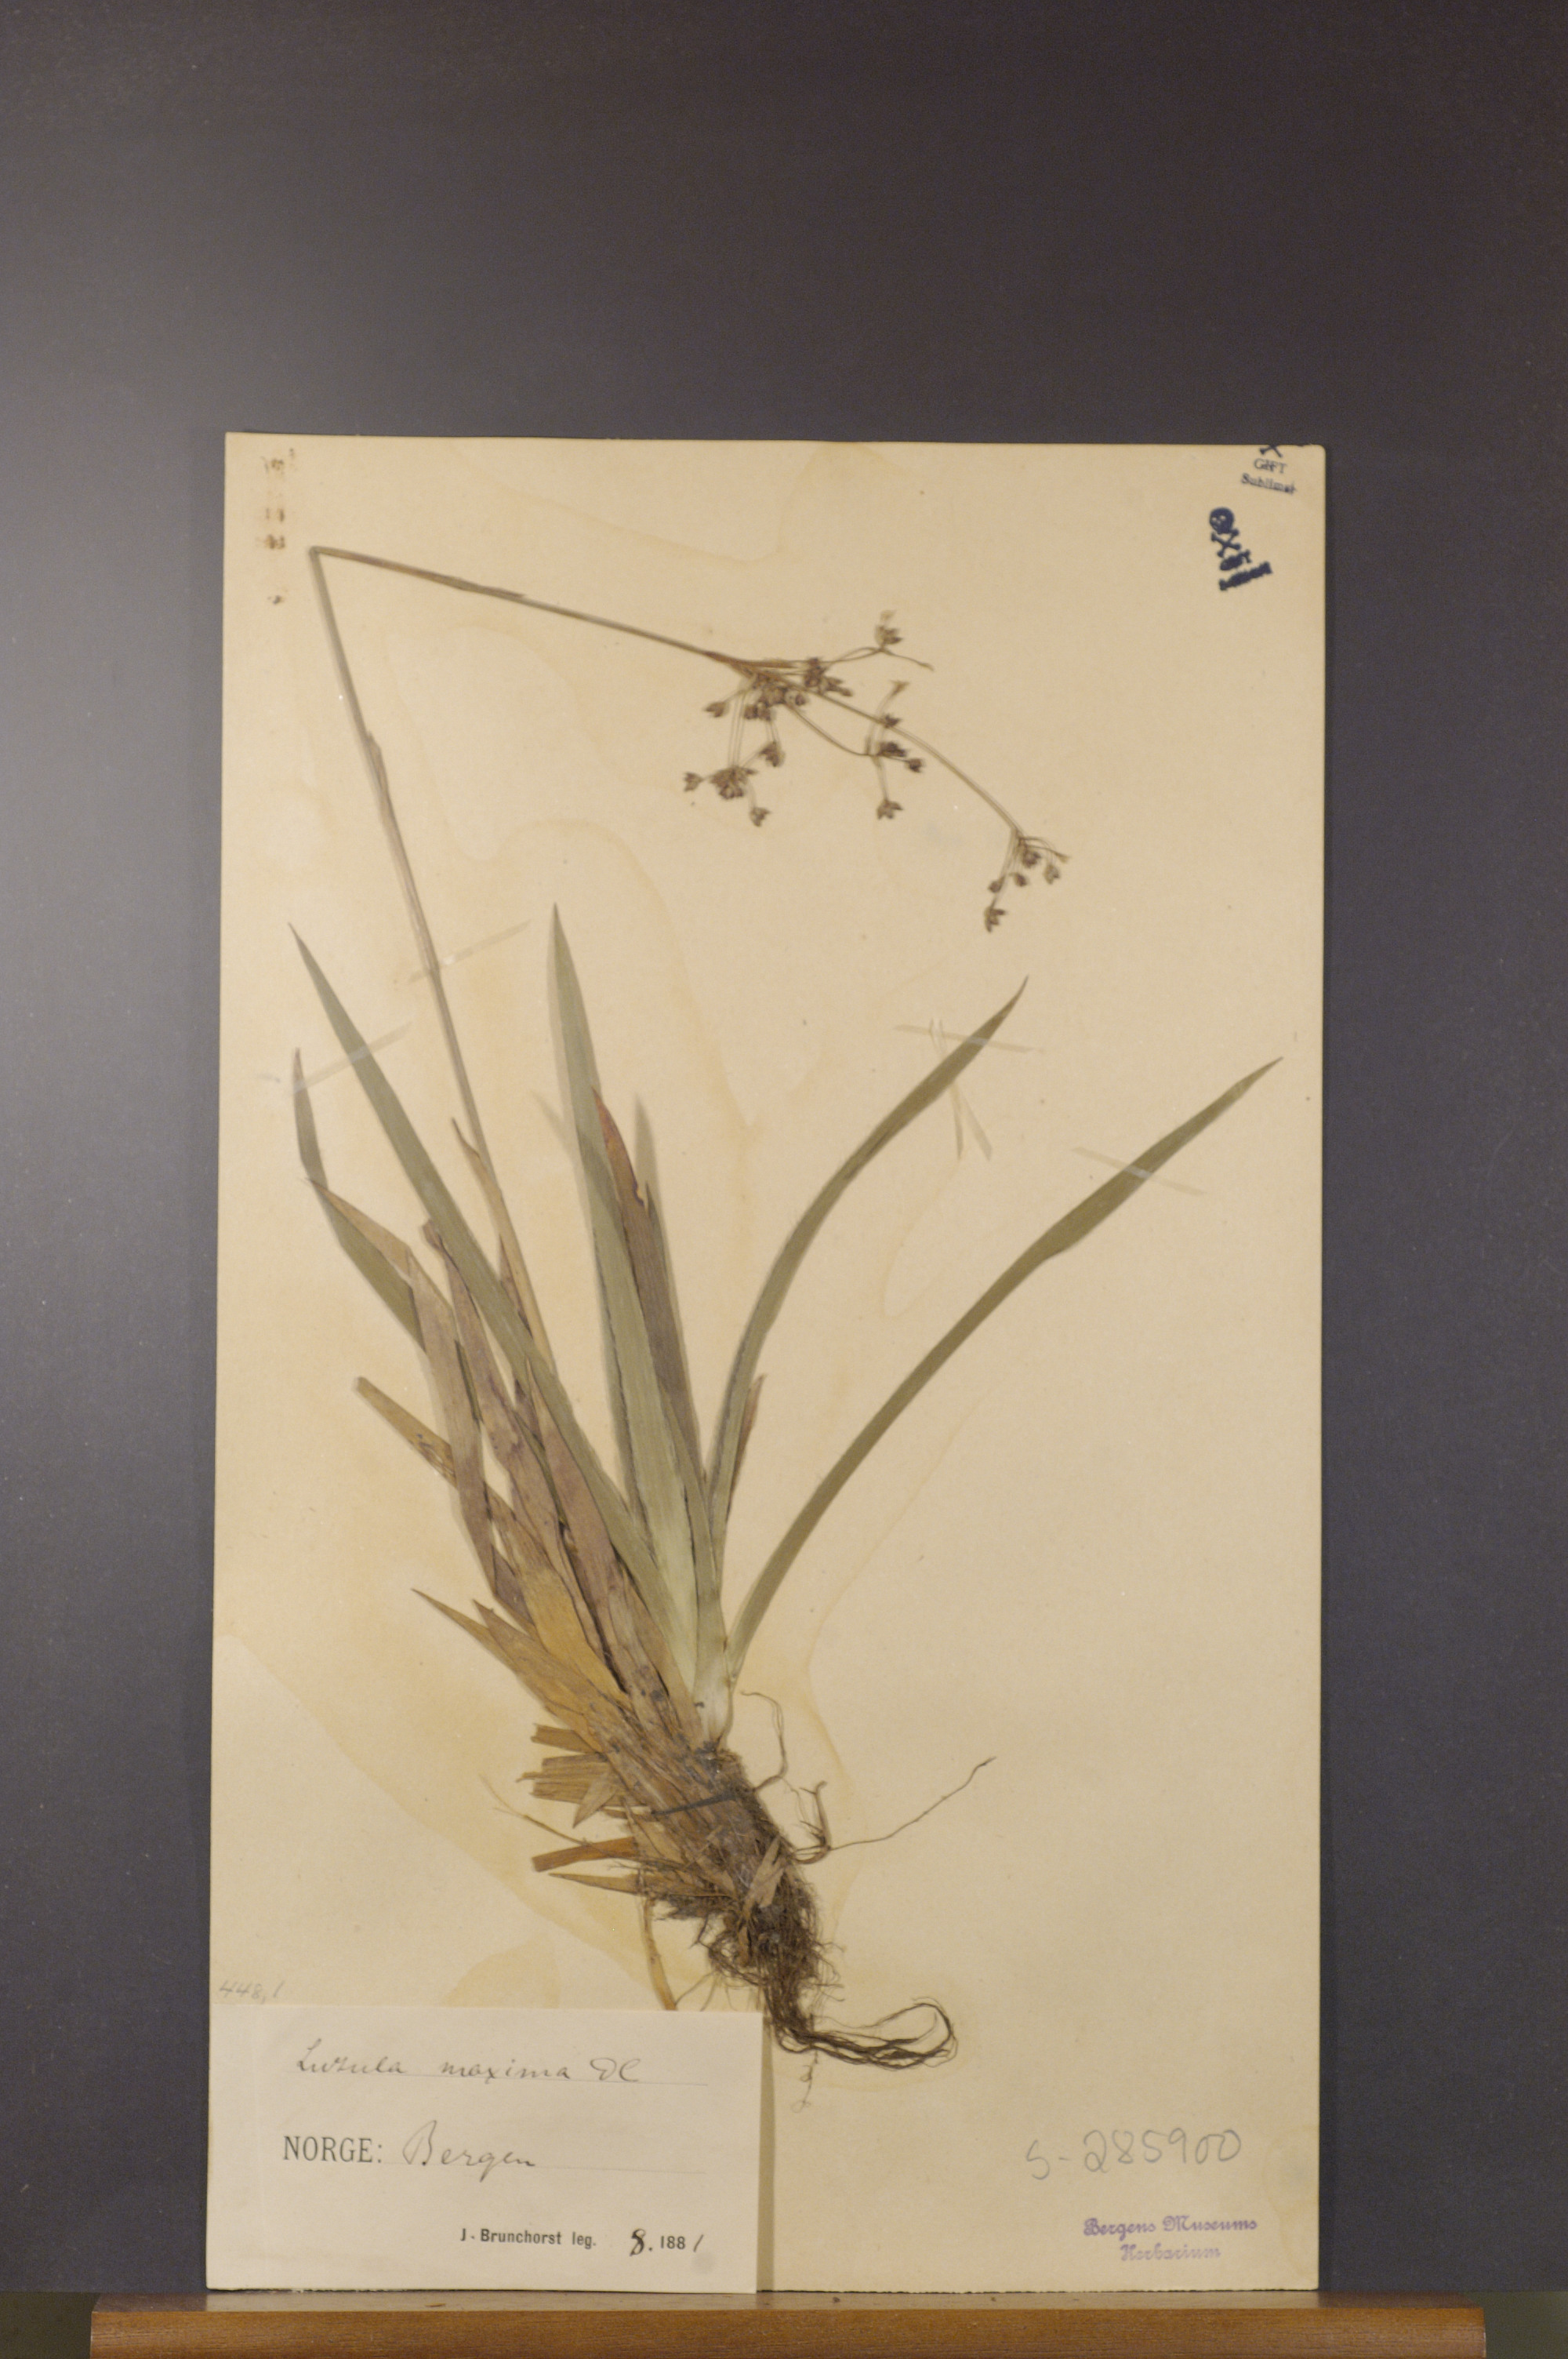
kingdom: Plantae
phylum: Tracheophyta
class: Liliopsida
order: Poales
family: Juncaceae
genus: Luzula
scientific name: Luzula sylvatica
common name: Great wood-rush
